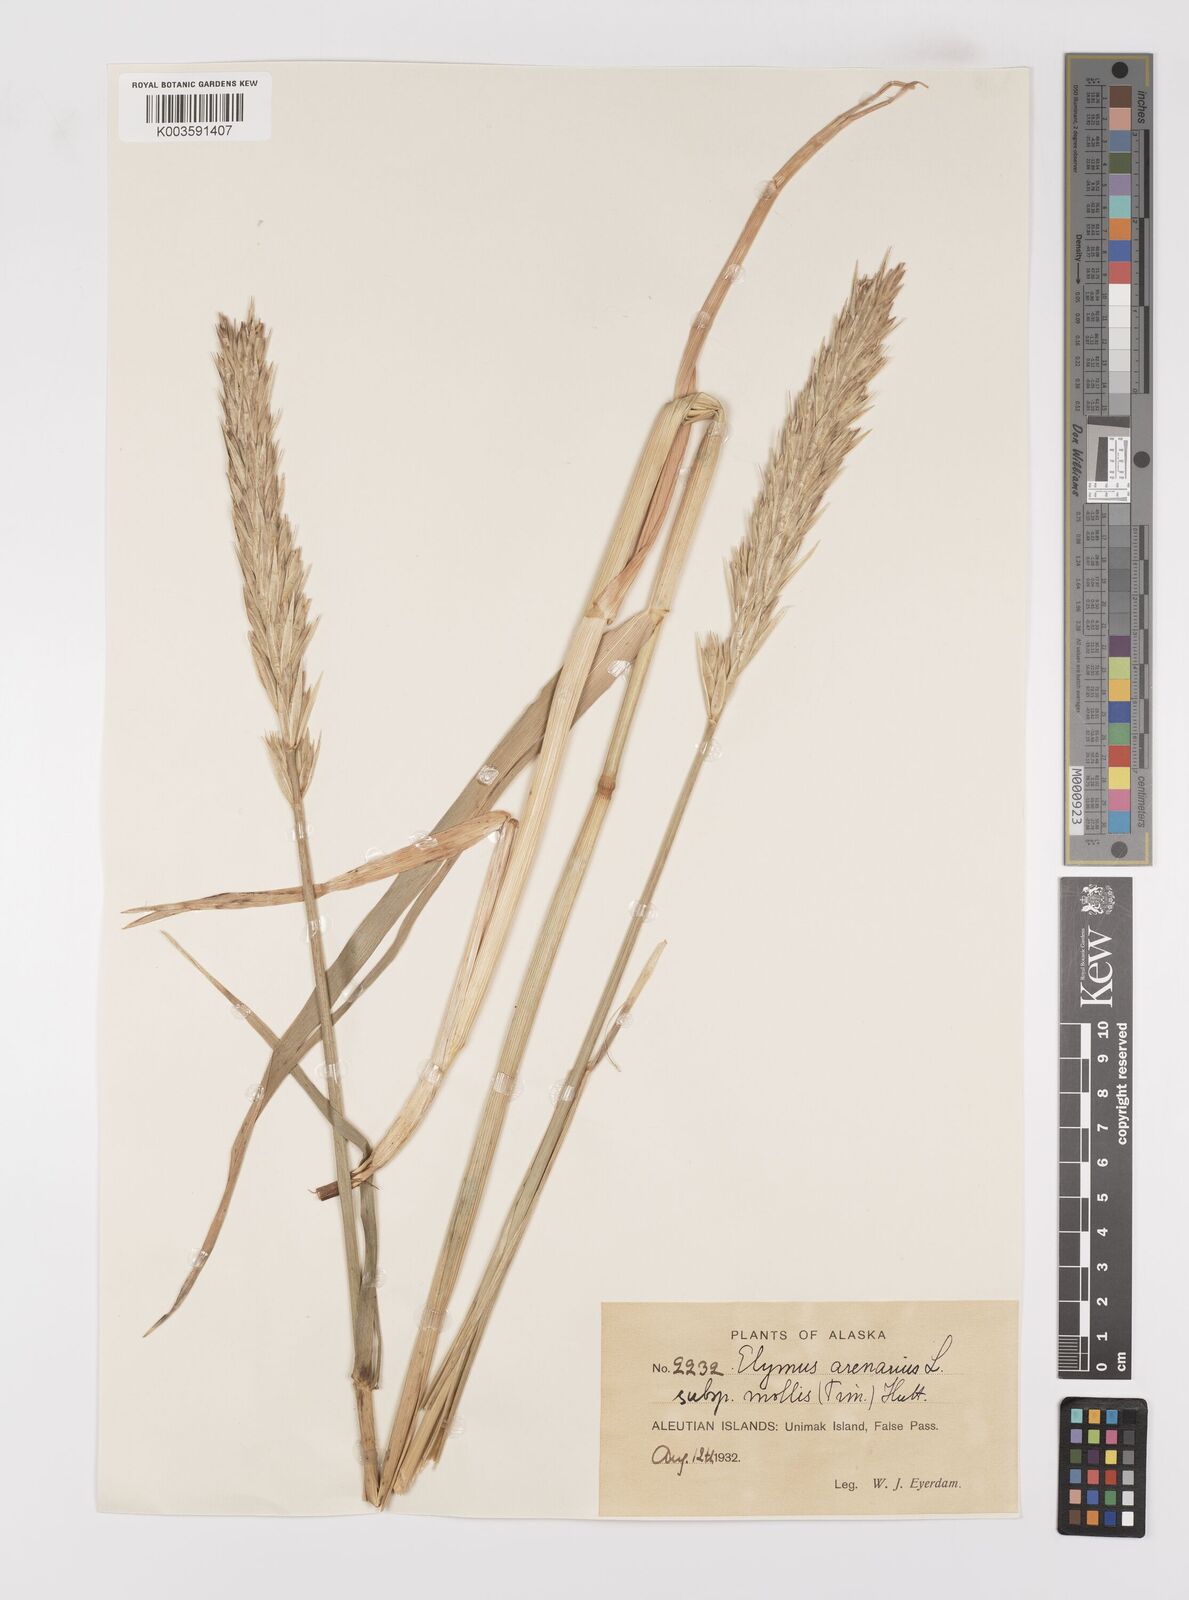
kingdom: Plantae
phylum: Tracheophyta
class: Liliopsida
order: Poales
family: Poaceae
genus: Leymus
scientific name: Leymus mollis
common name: American dune grass
